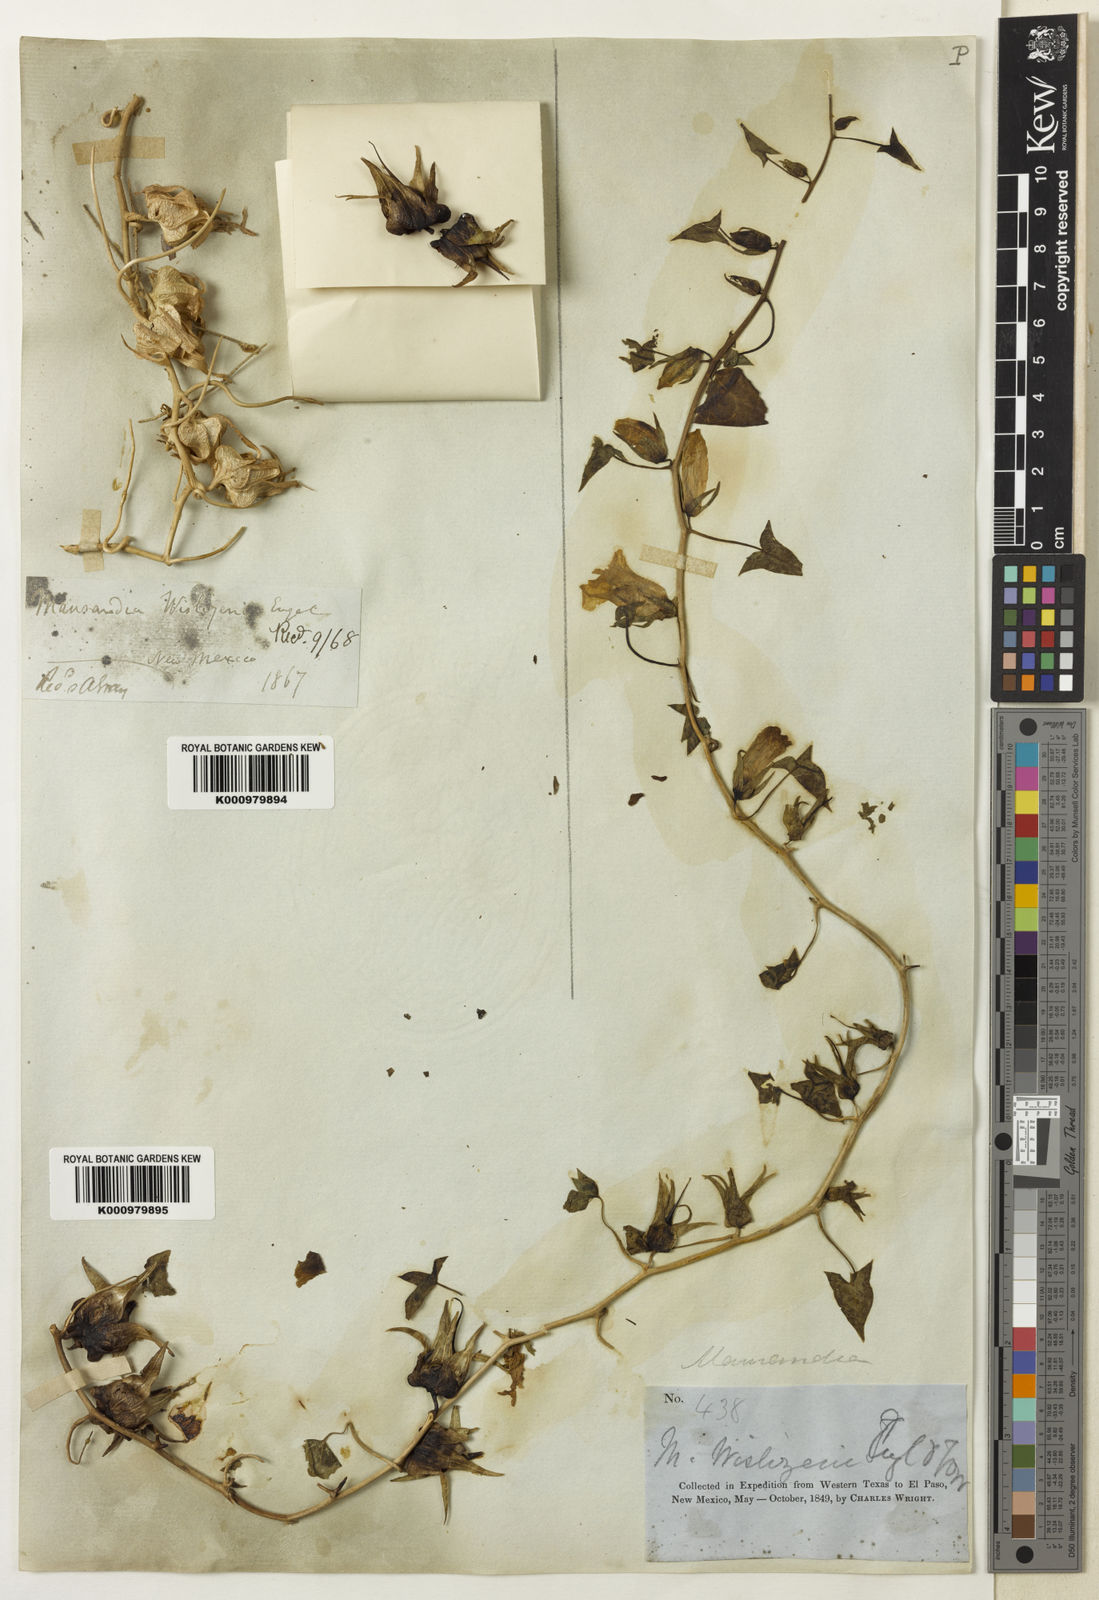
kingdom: Plantae
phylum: Tracheophyta
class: Magnoliopsida
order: Lamiales
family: Plantaginaceae
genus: Epixiphium
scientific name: Epixiphium wislizeni
